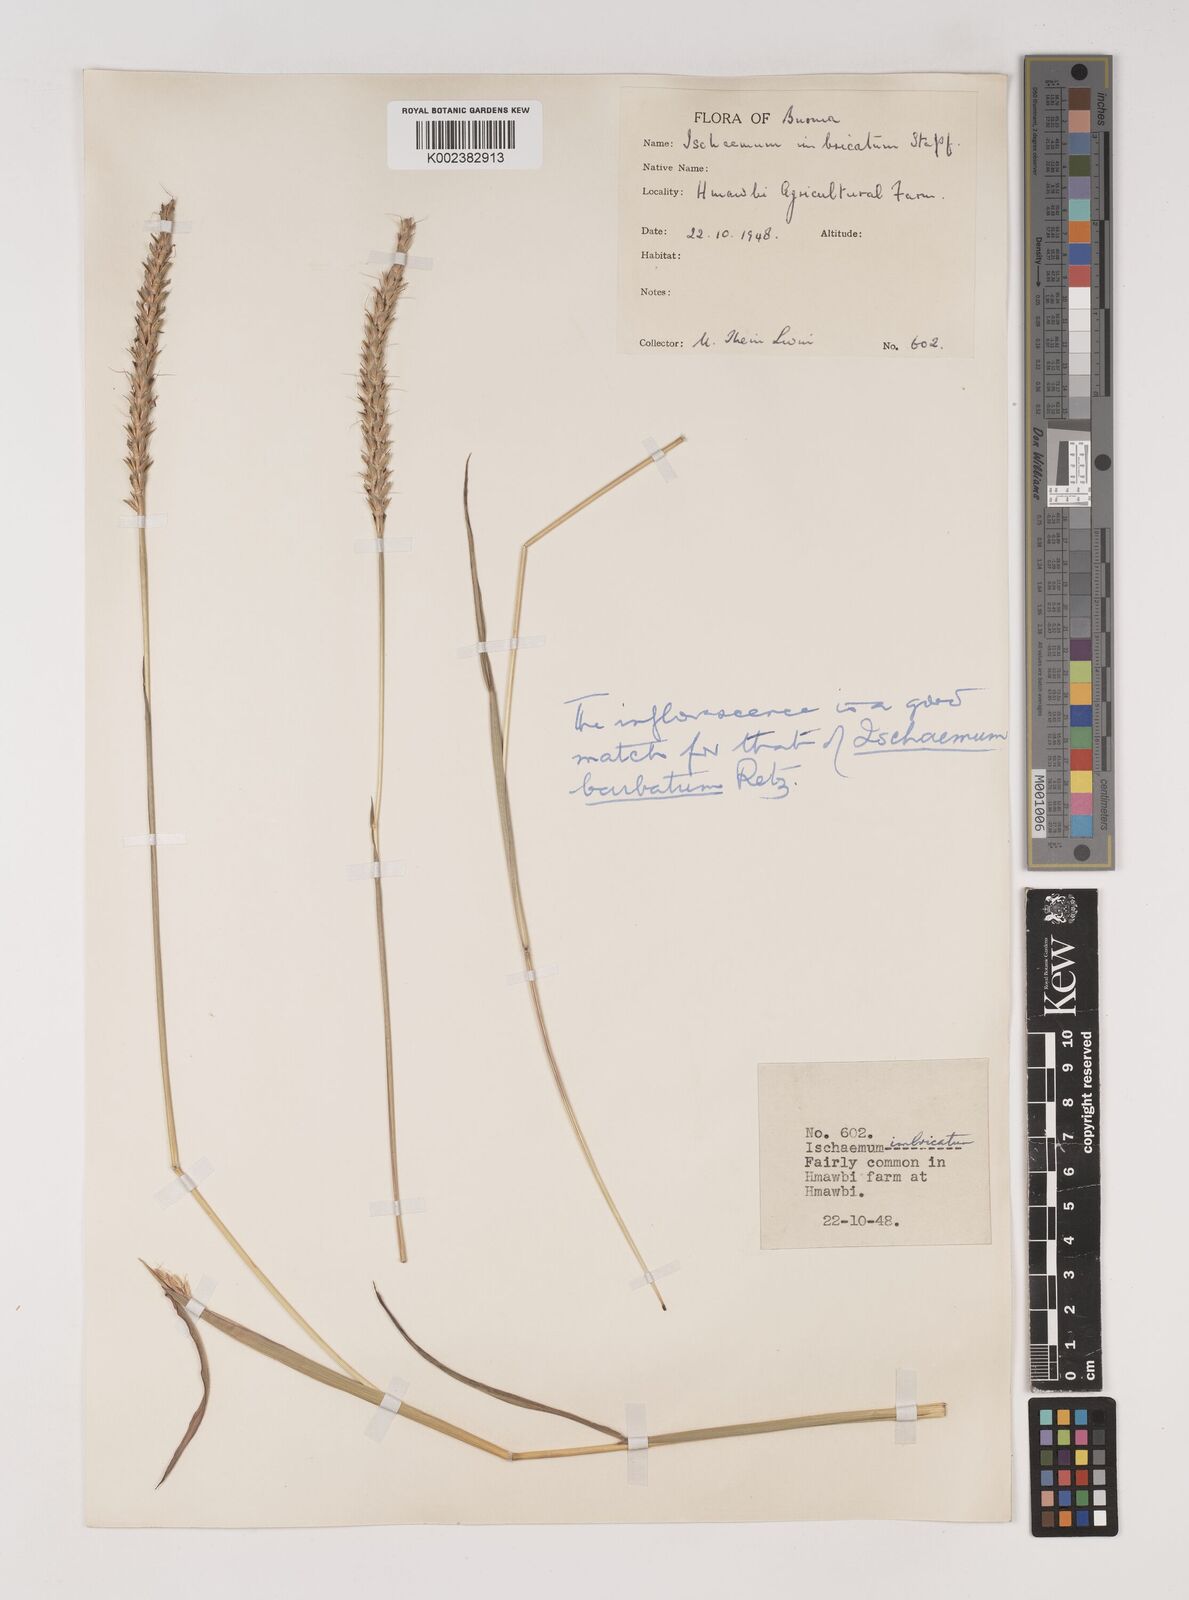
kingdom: Plantae
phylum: Tracheophyta
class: Liliopsida
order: Poales
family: Poaceae
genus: Ischaemum
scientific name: Ischaemum
